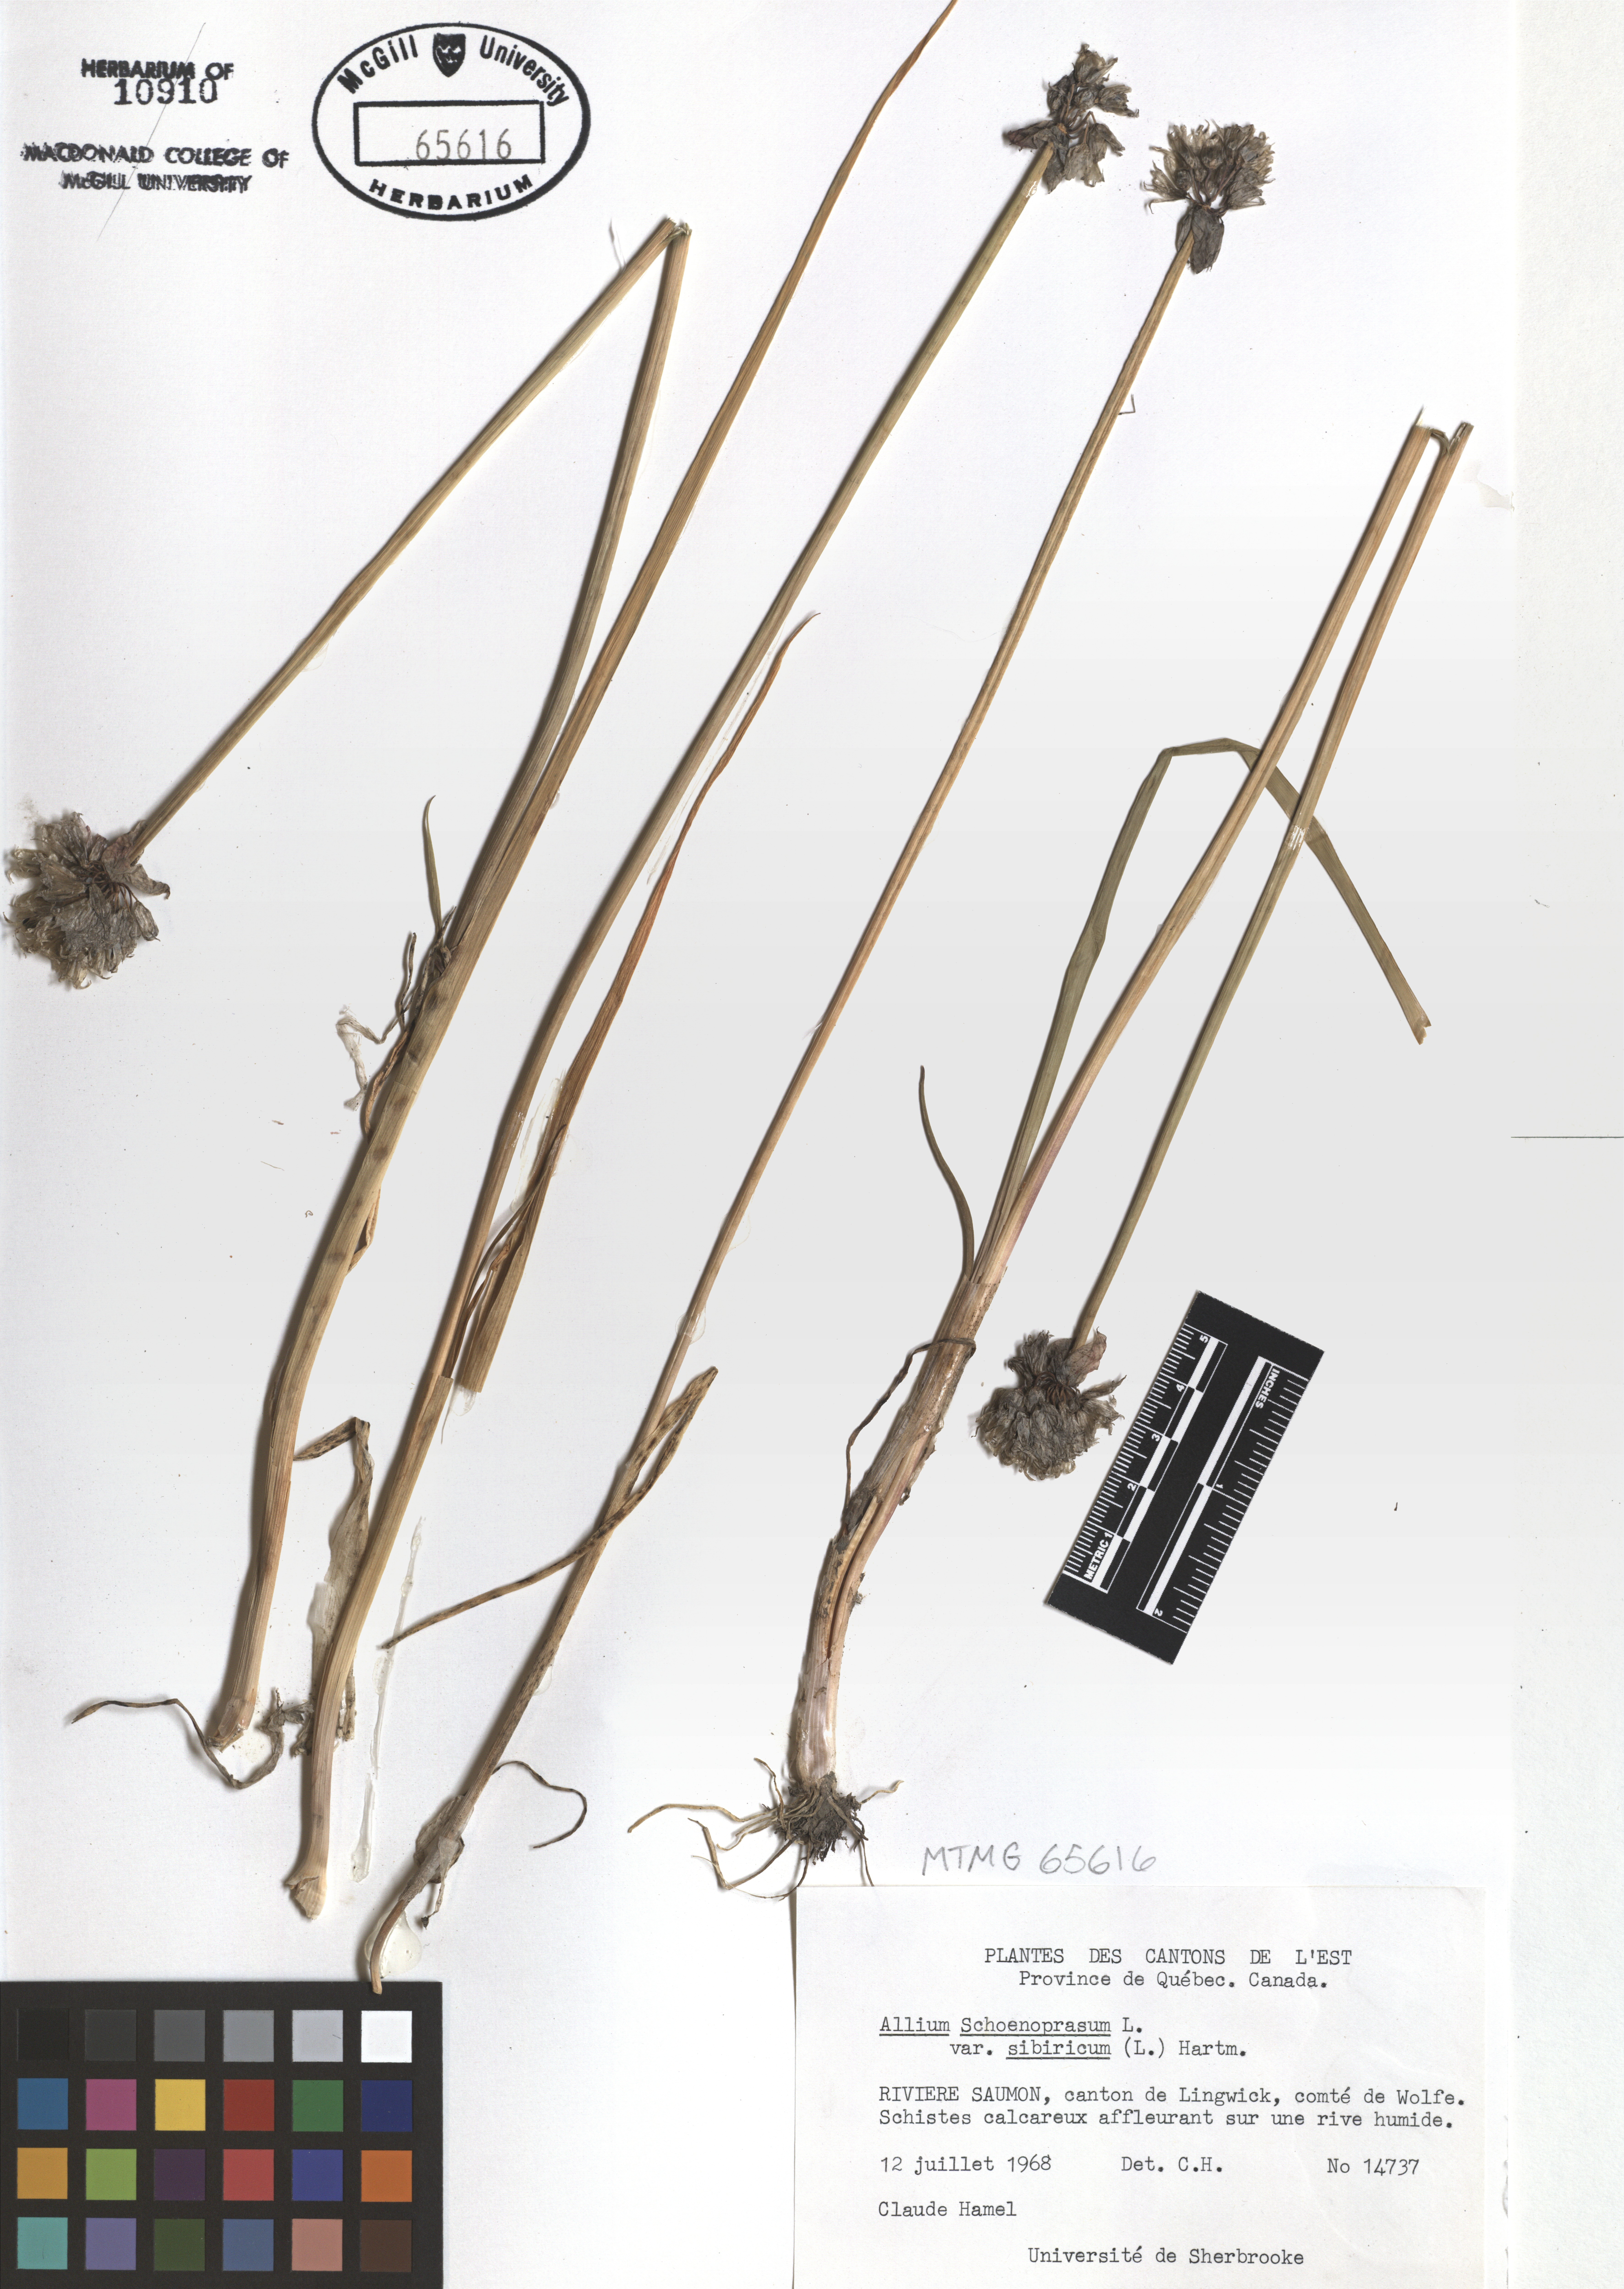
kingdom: Plantae
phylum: Tracheophyta
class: Liliopsida
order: Asparagales
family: Amaryllidaceae
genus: Allium
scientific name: Allium schoenoprasum
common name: Chives
